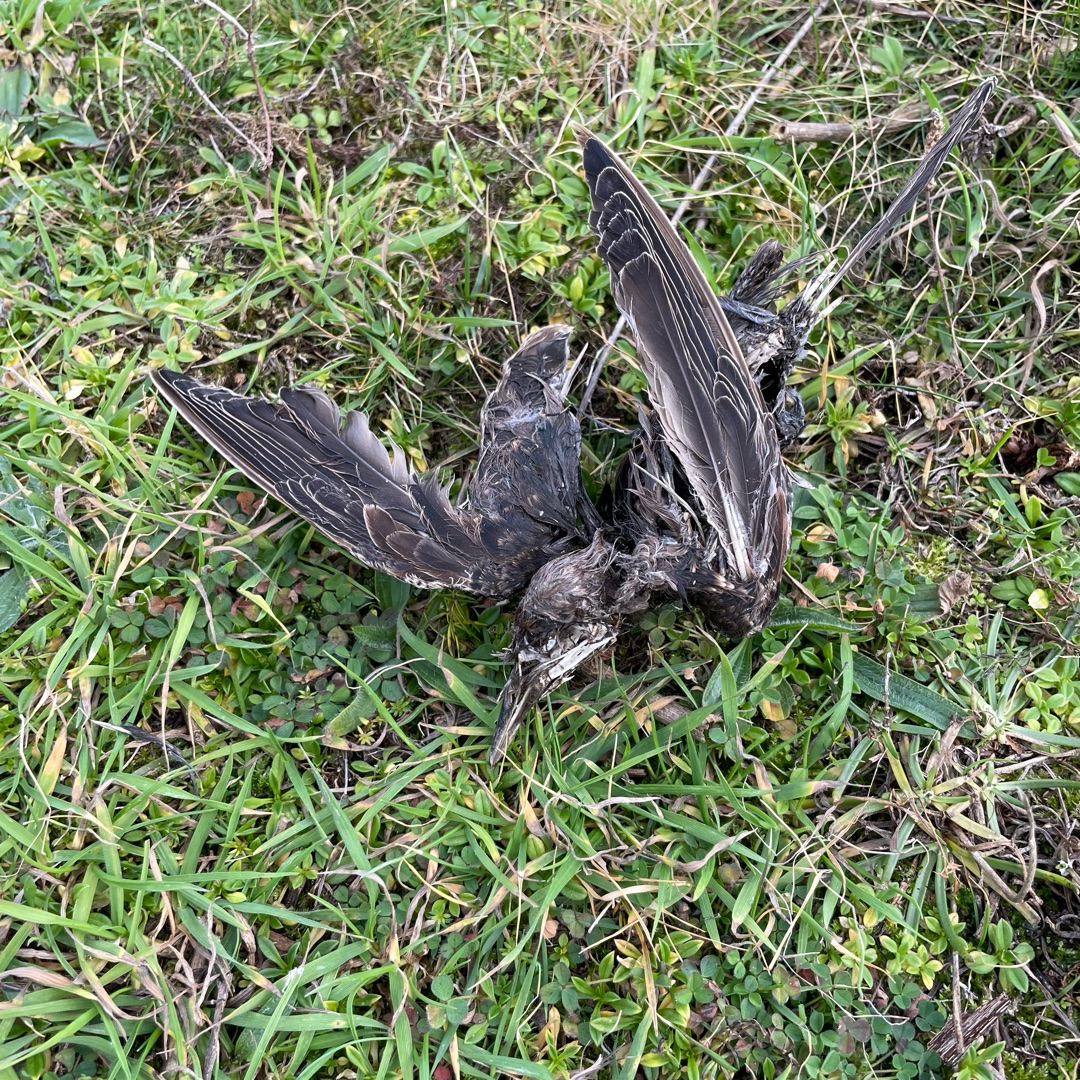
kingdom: Animalia
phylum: Chordata
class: Aves
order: Passeriformes
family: Sturnidae
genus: Sturnus
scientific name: Sturnus vulgaris
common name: Stær
